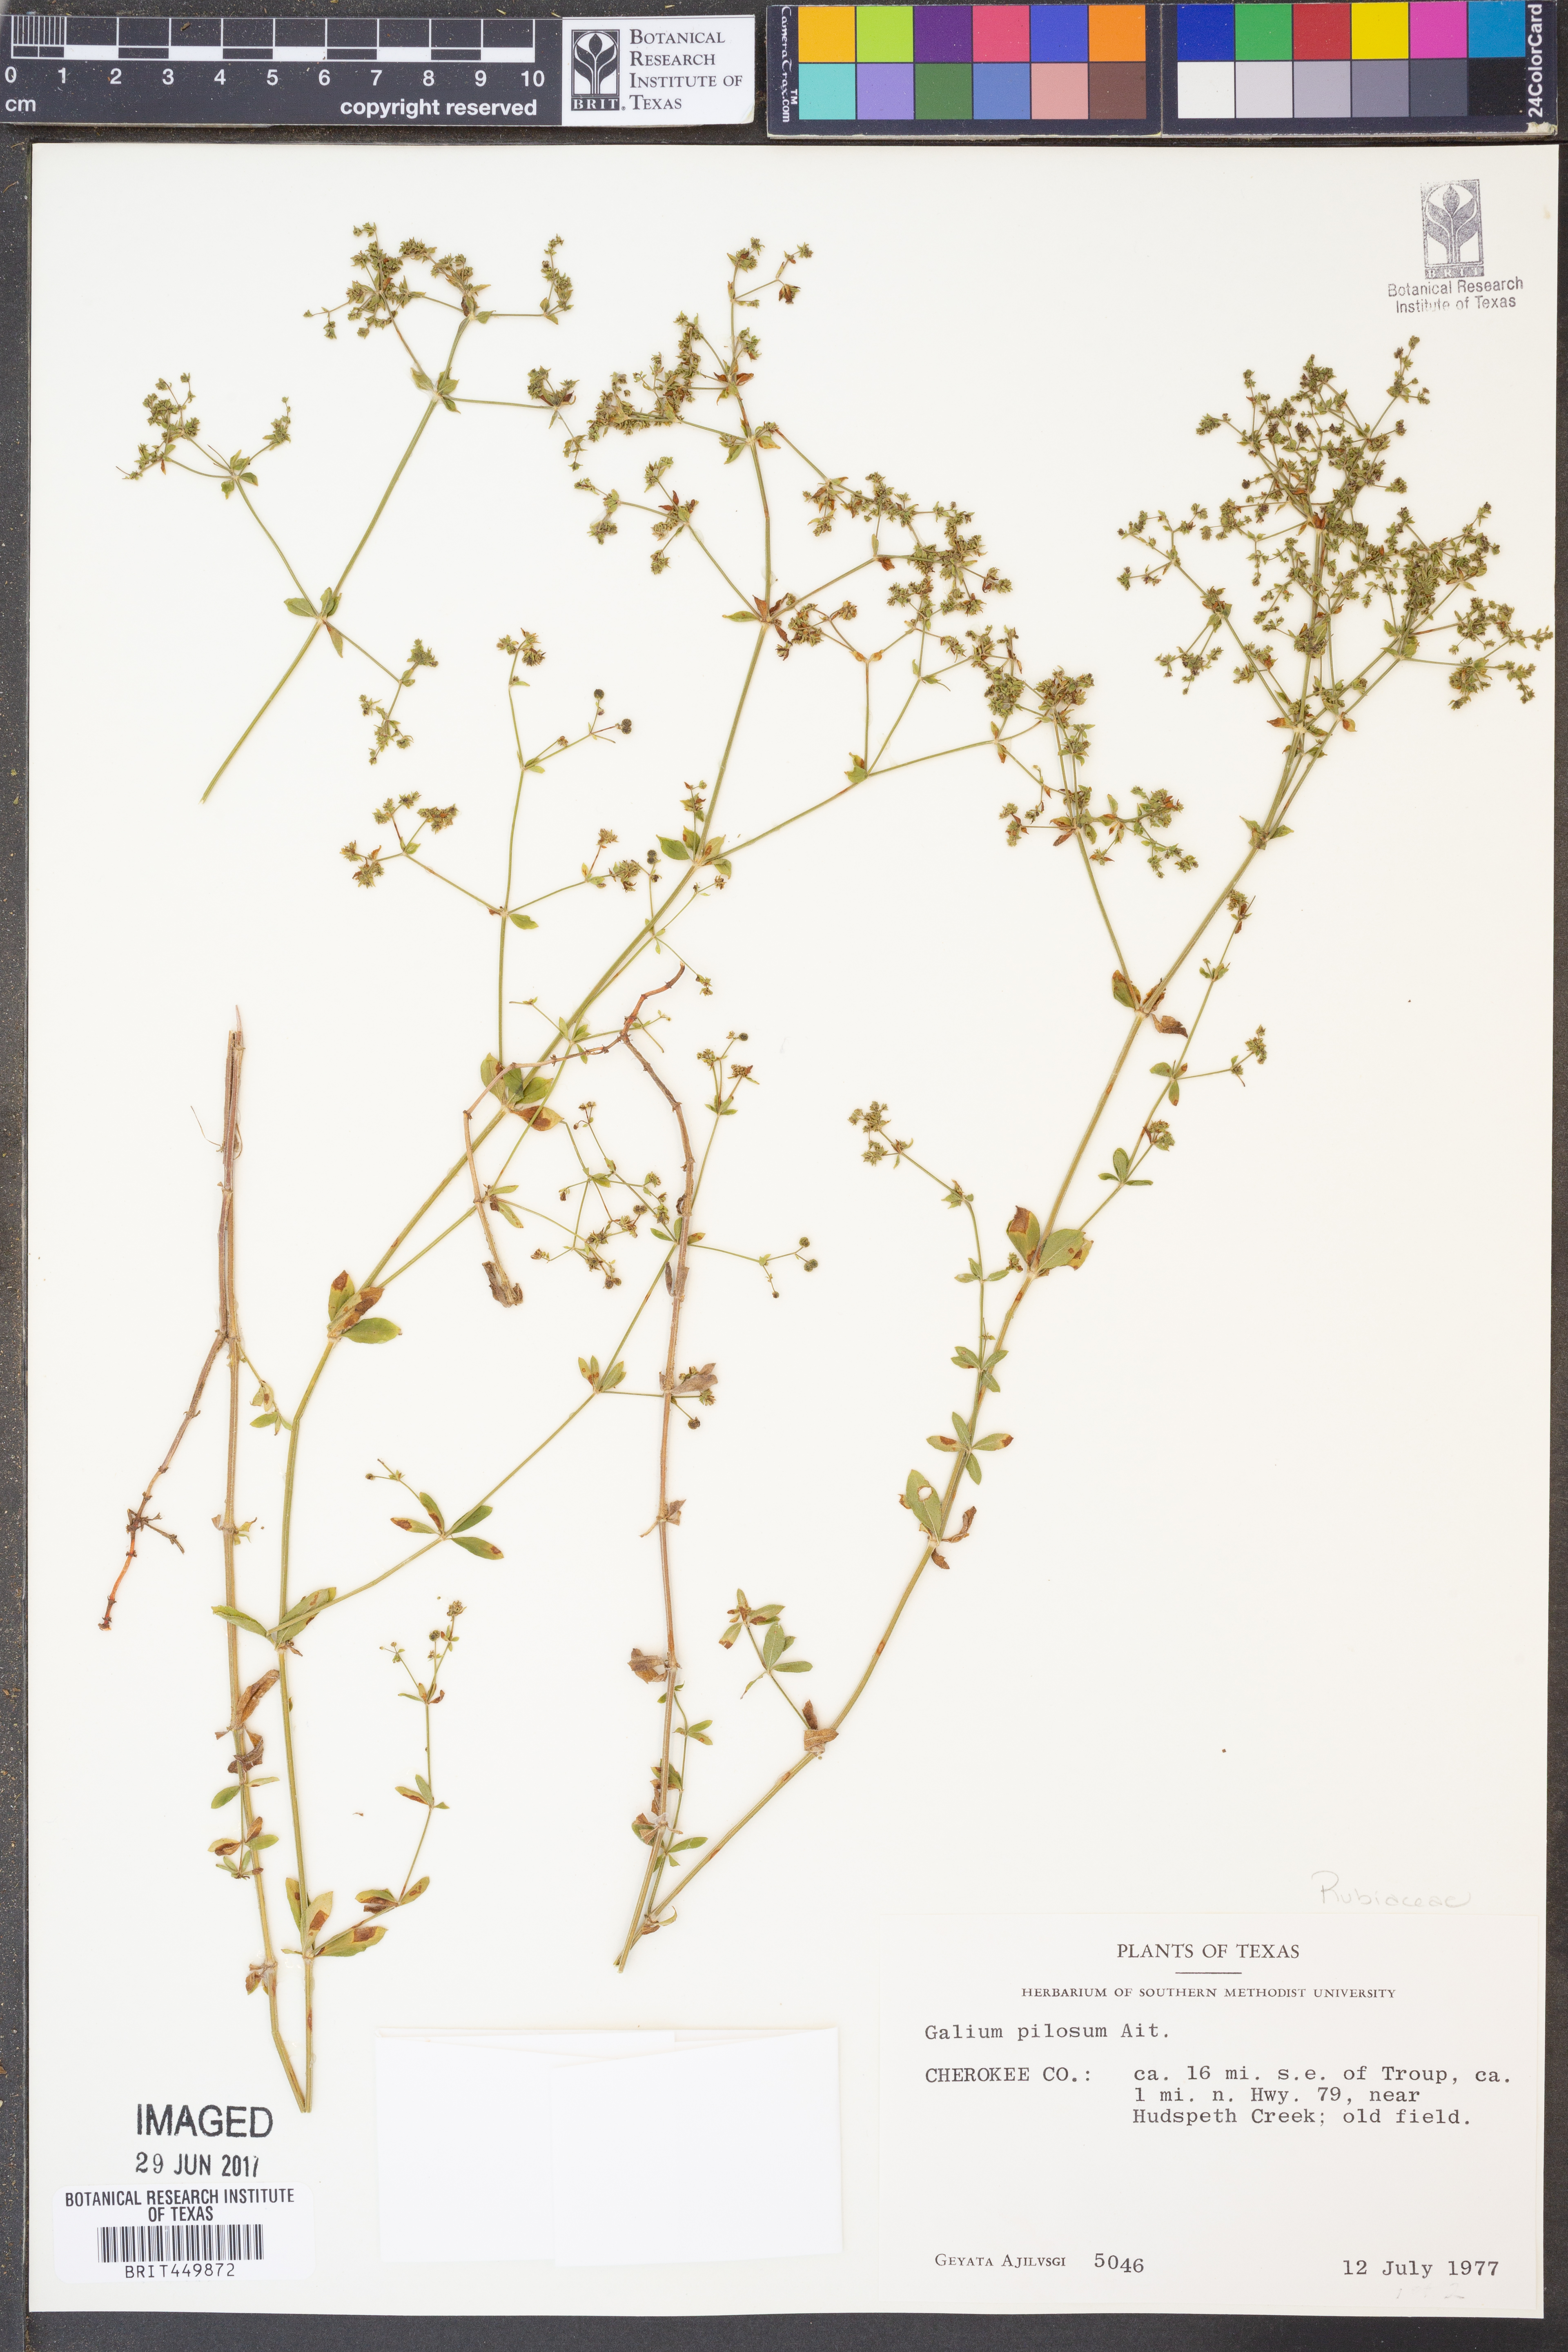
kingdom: Plantae
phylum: Tracheophyta
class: Magnoliopsida
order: Gentianales
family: Rubiaceae
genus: Galium
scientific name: Galium pilosum
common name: Hairy bedstraw
